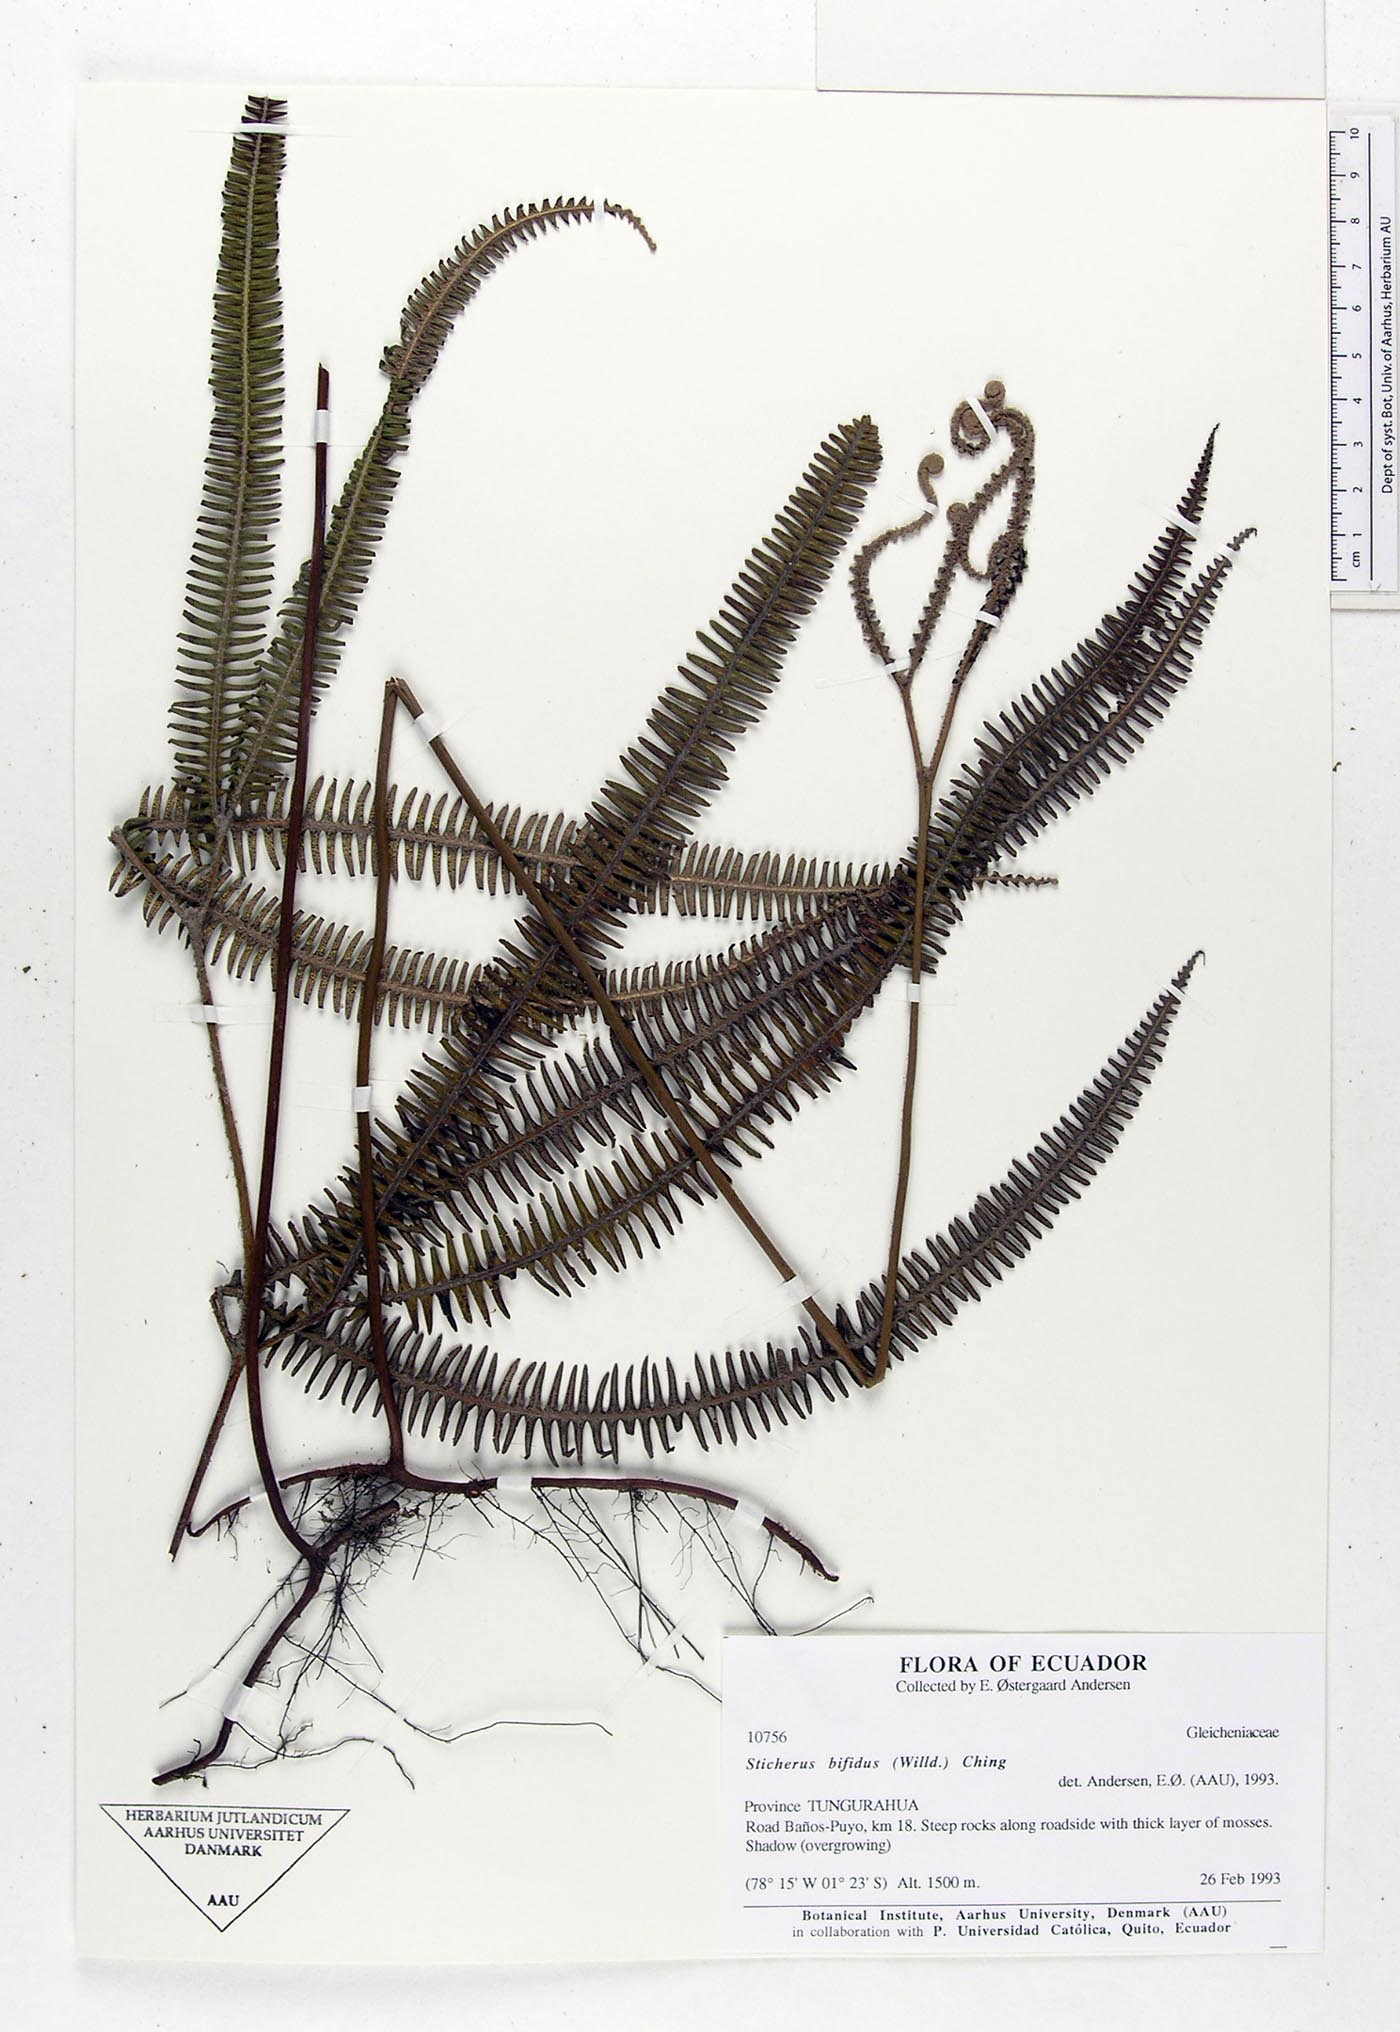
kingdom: Plantae
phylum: Tracheophyta
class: Polypodiopsida
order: Gleicheniales
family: Gleicheniaceae
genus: Sticherus
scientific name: Sticherus bifidus
